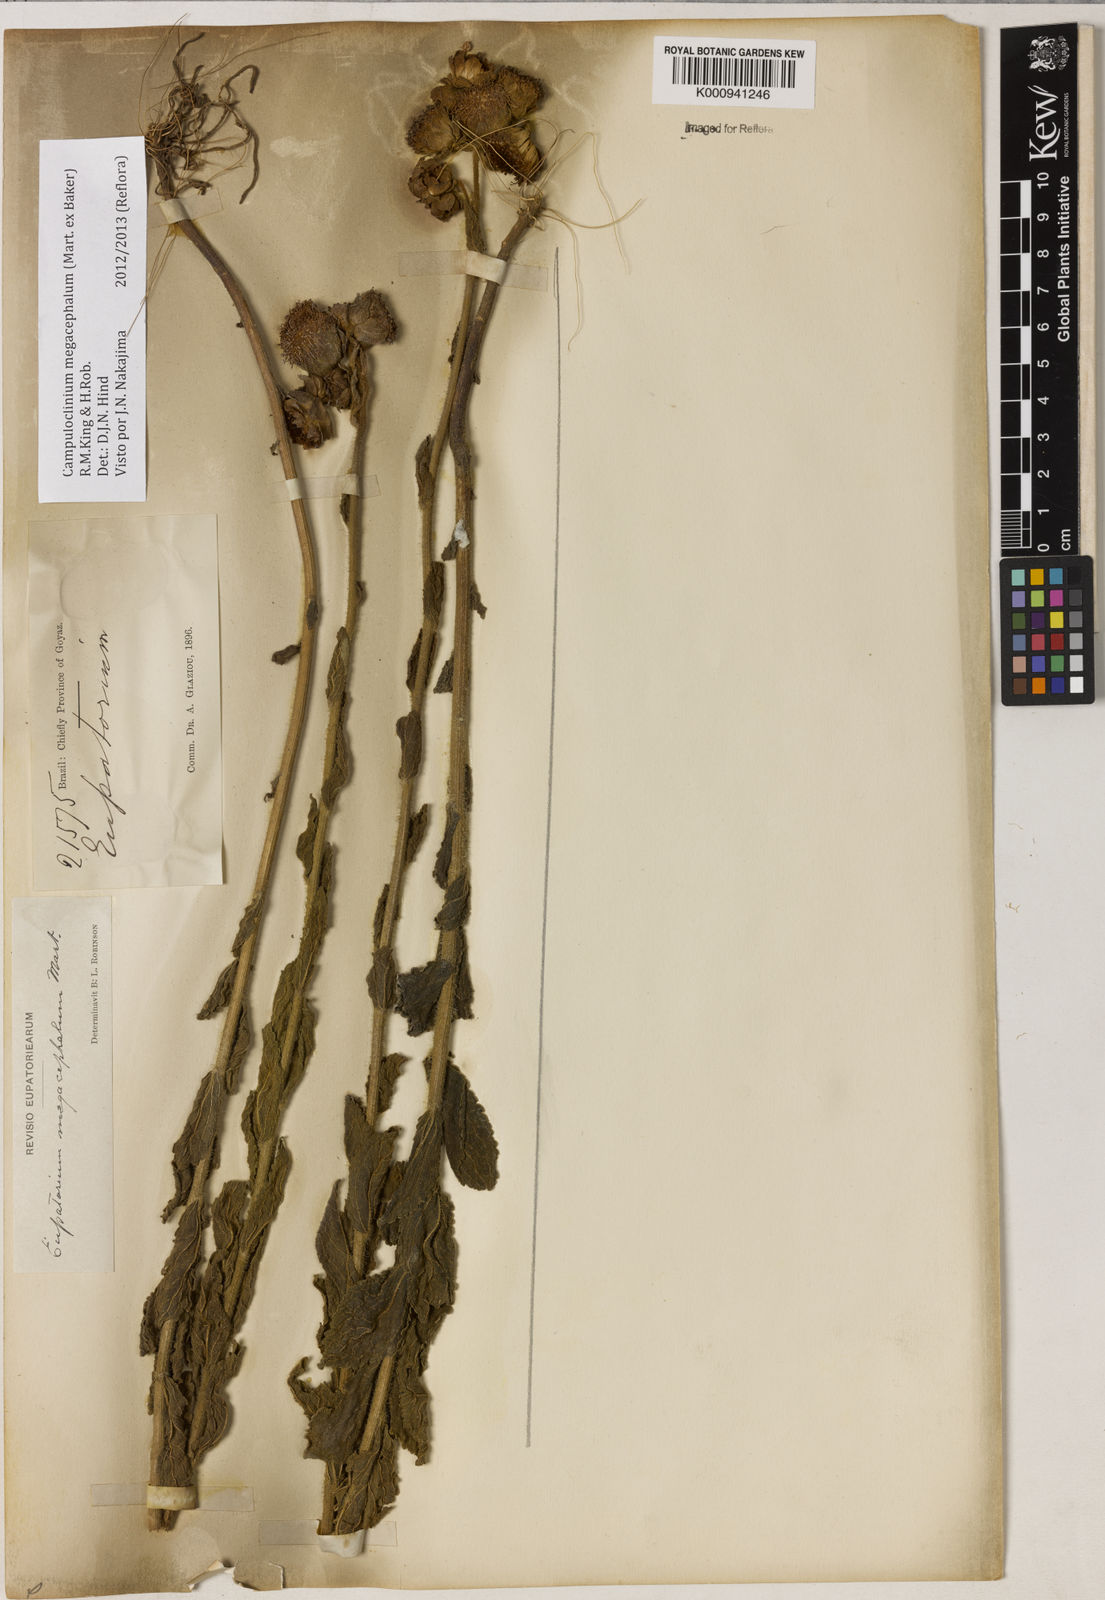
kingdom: Plantae
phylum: Tracheophyta
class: Magnoliopsida
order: Asterales
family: Asteraceae
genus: Campuloclinium
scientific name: Campuloclinium megacephalum
